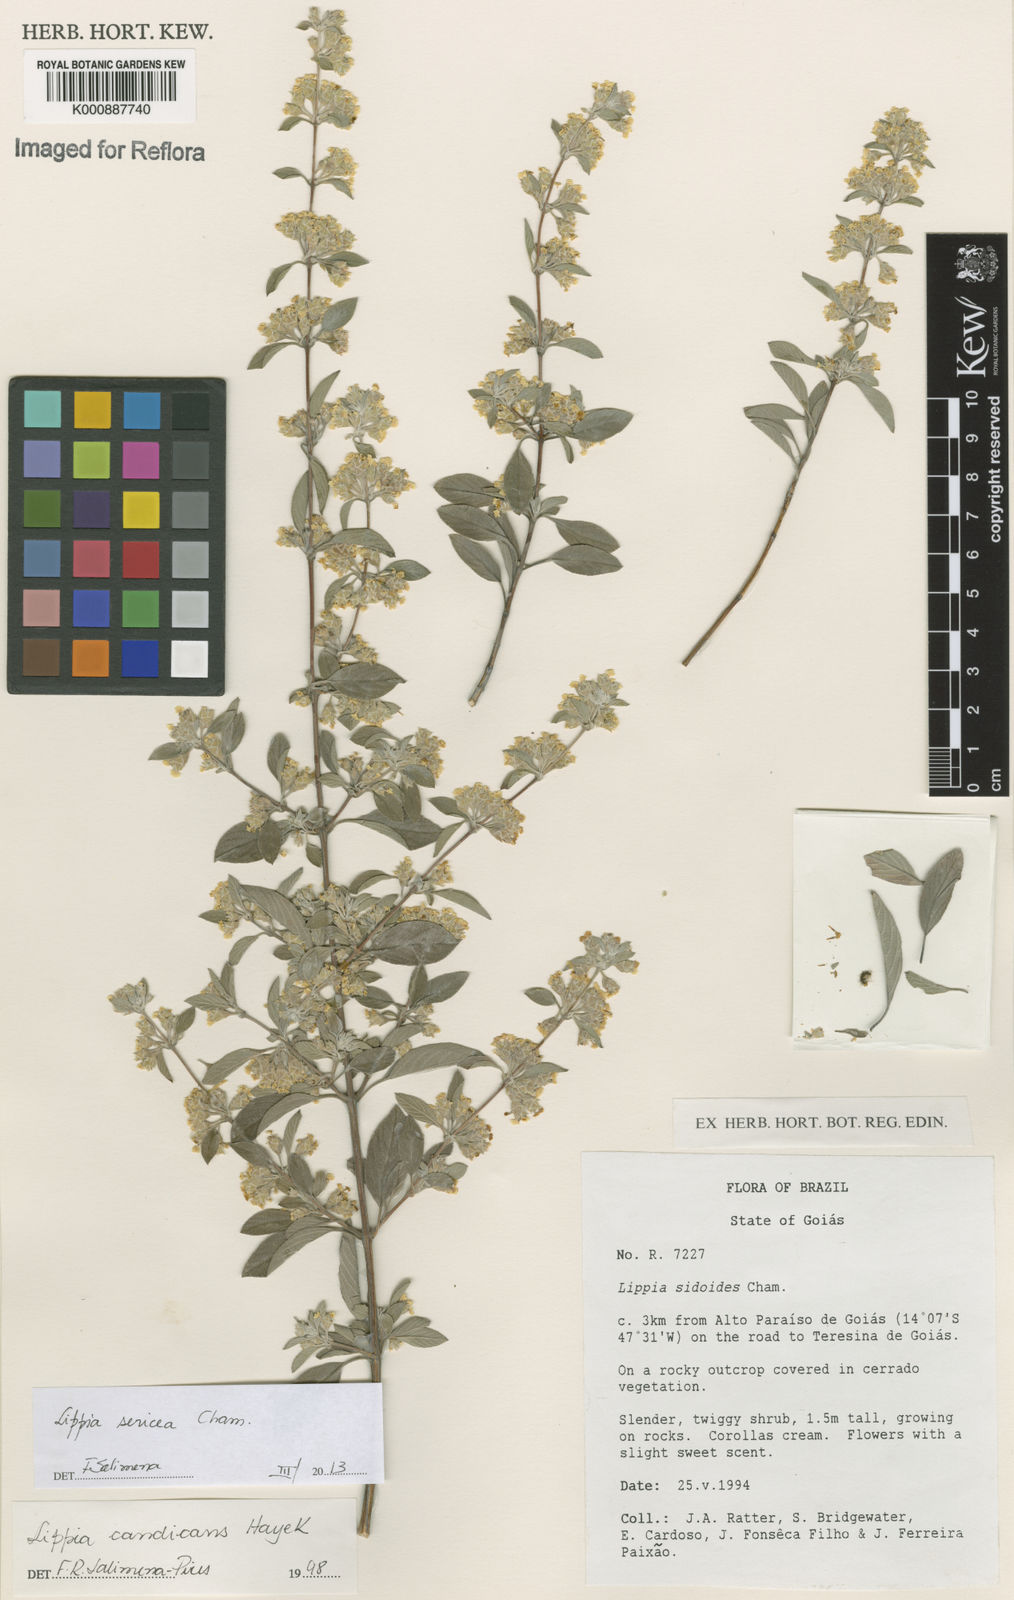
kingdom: Plantae
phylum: Tracheophyta
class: Magnoliopsida
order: Lamiales
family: Verbenaceae
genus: Lippia
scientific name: Lippia sericea
